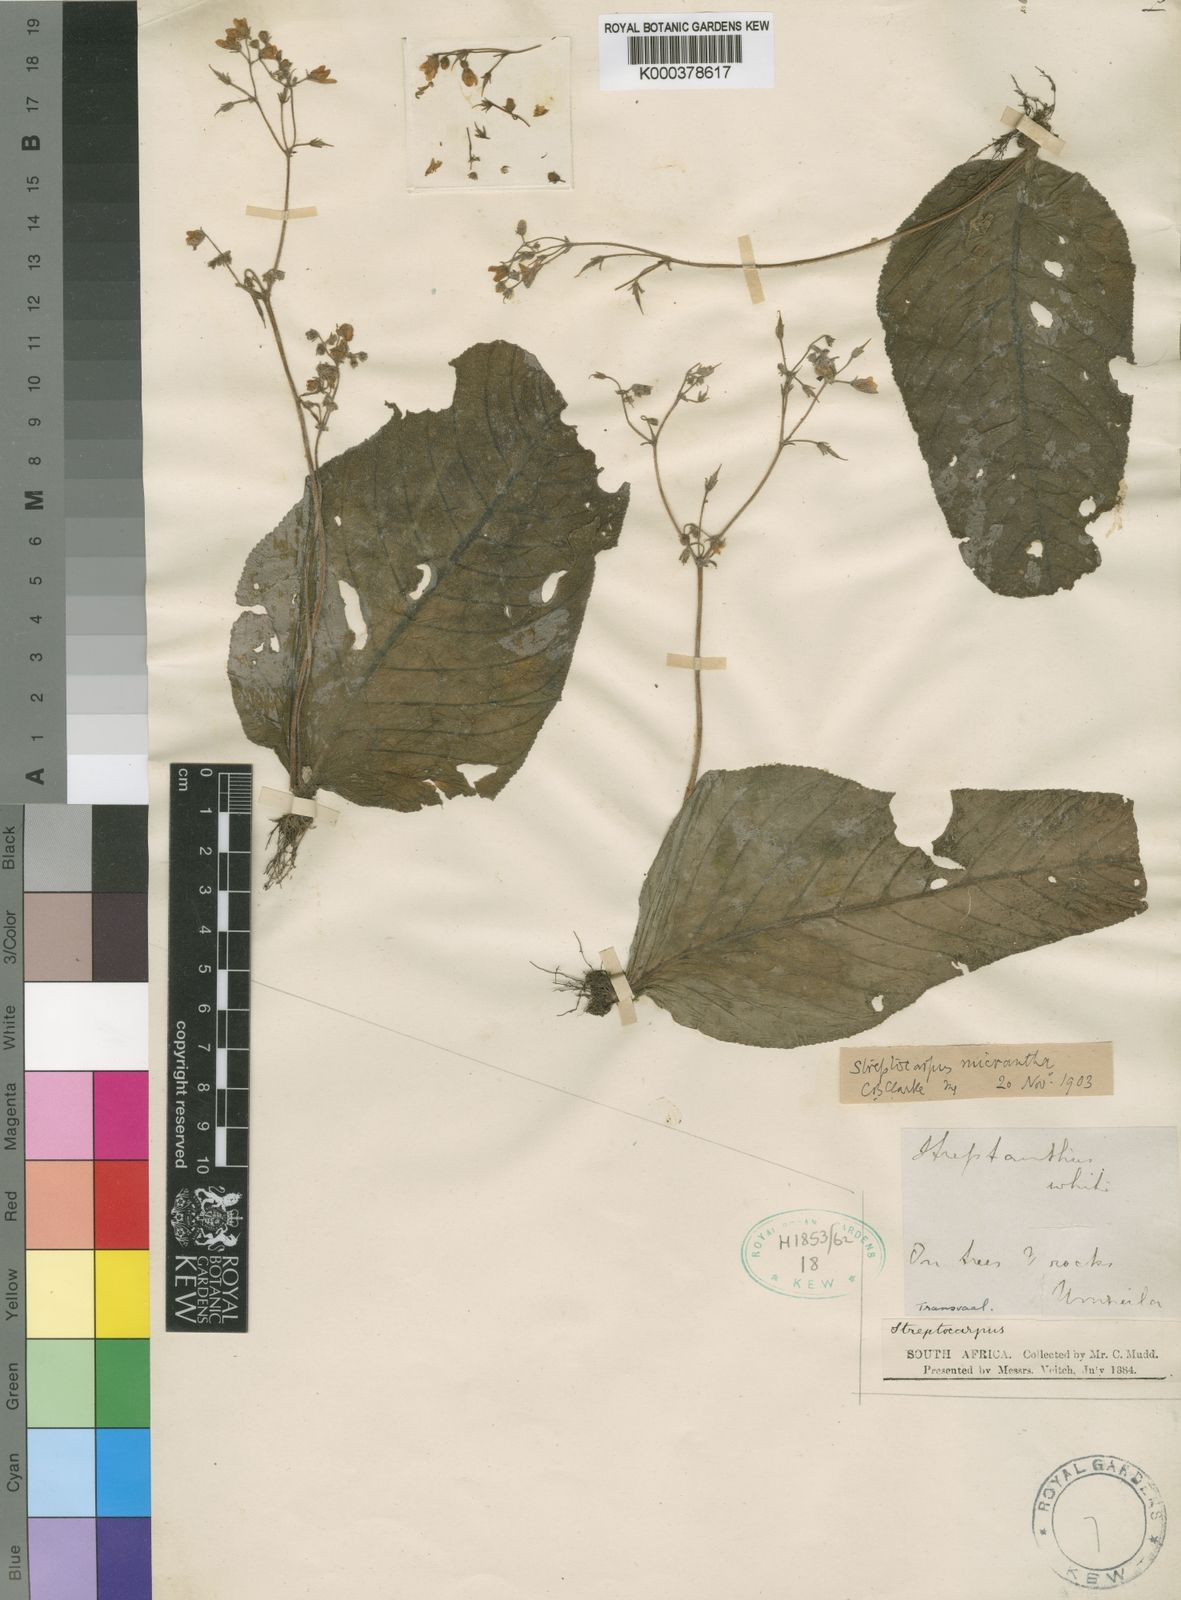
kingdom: Plantae
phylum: Tracheophyta
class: Magnoliopsida
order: Lamiales
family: Gesneriaceae
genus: Streptocarpus
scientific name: Streptocarpus micranthus
